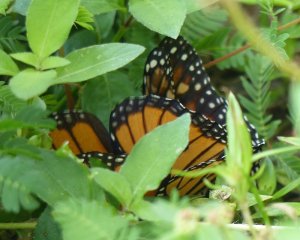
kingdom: Animalia
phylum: Arthropoda
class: Insecta
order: Lepidoptera
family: Nymphalidae
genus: Danaus
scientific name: Danaus plexippus
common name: Monarch
